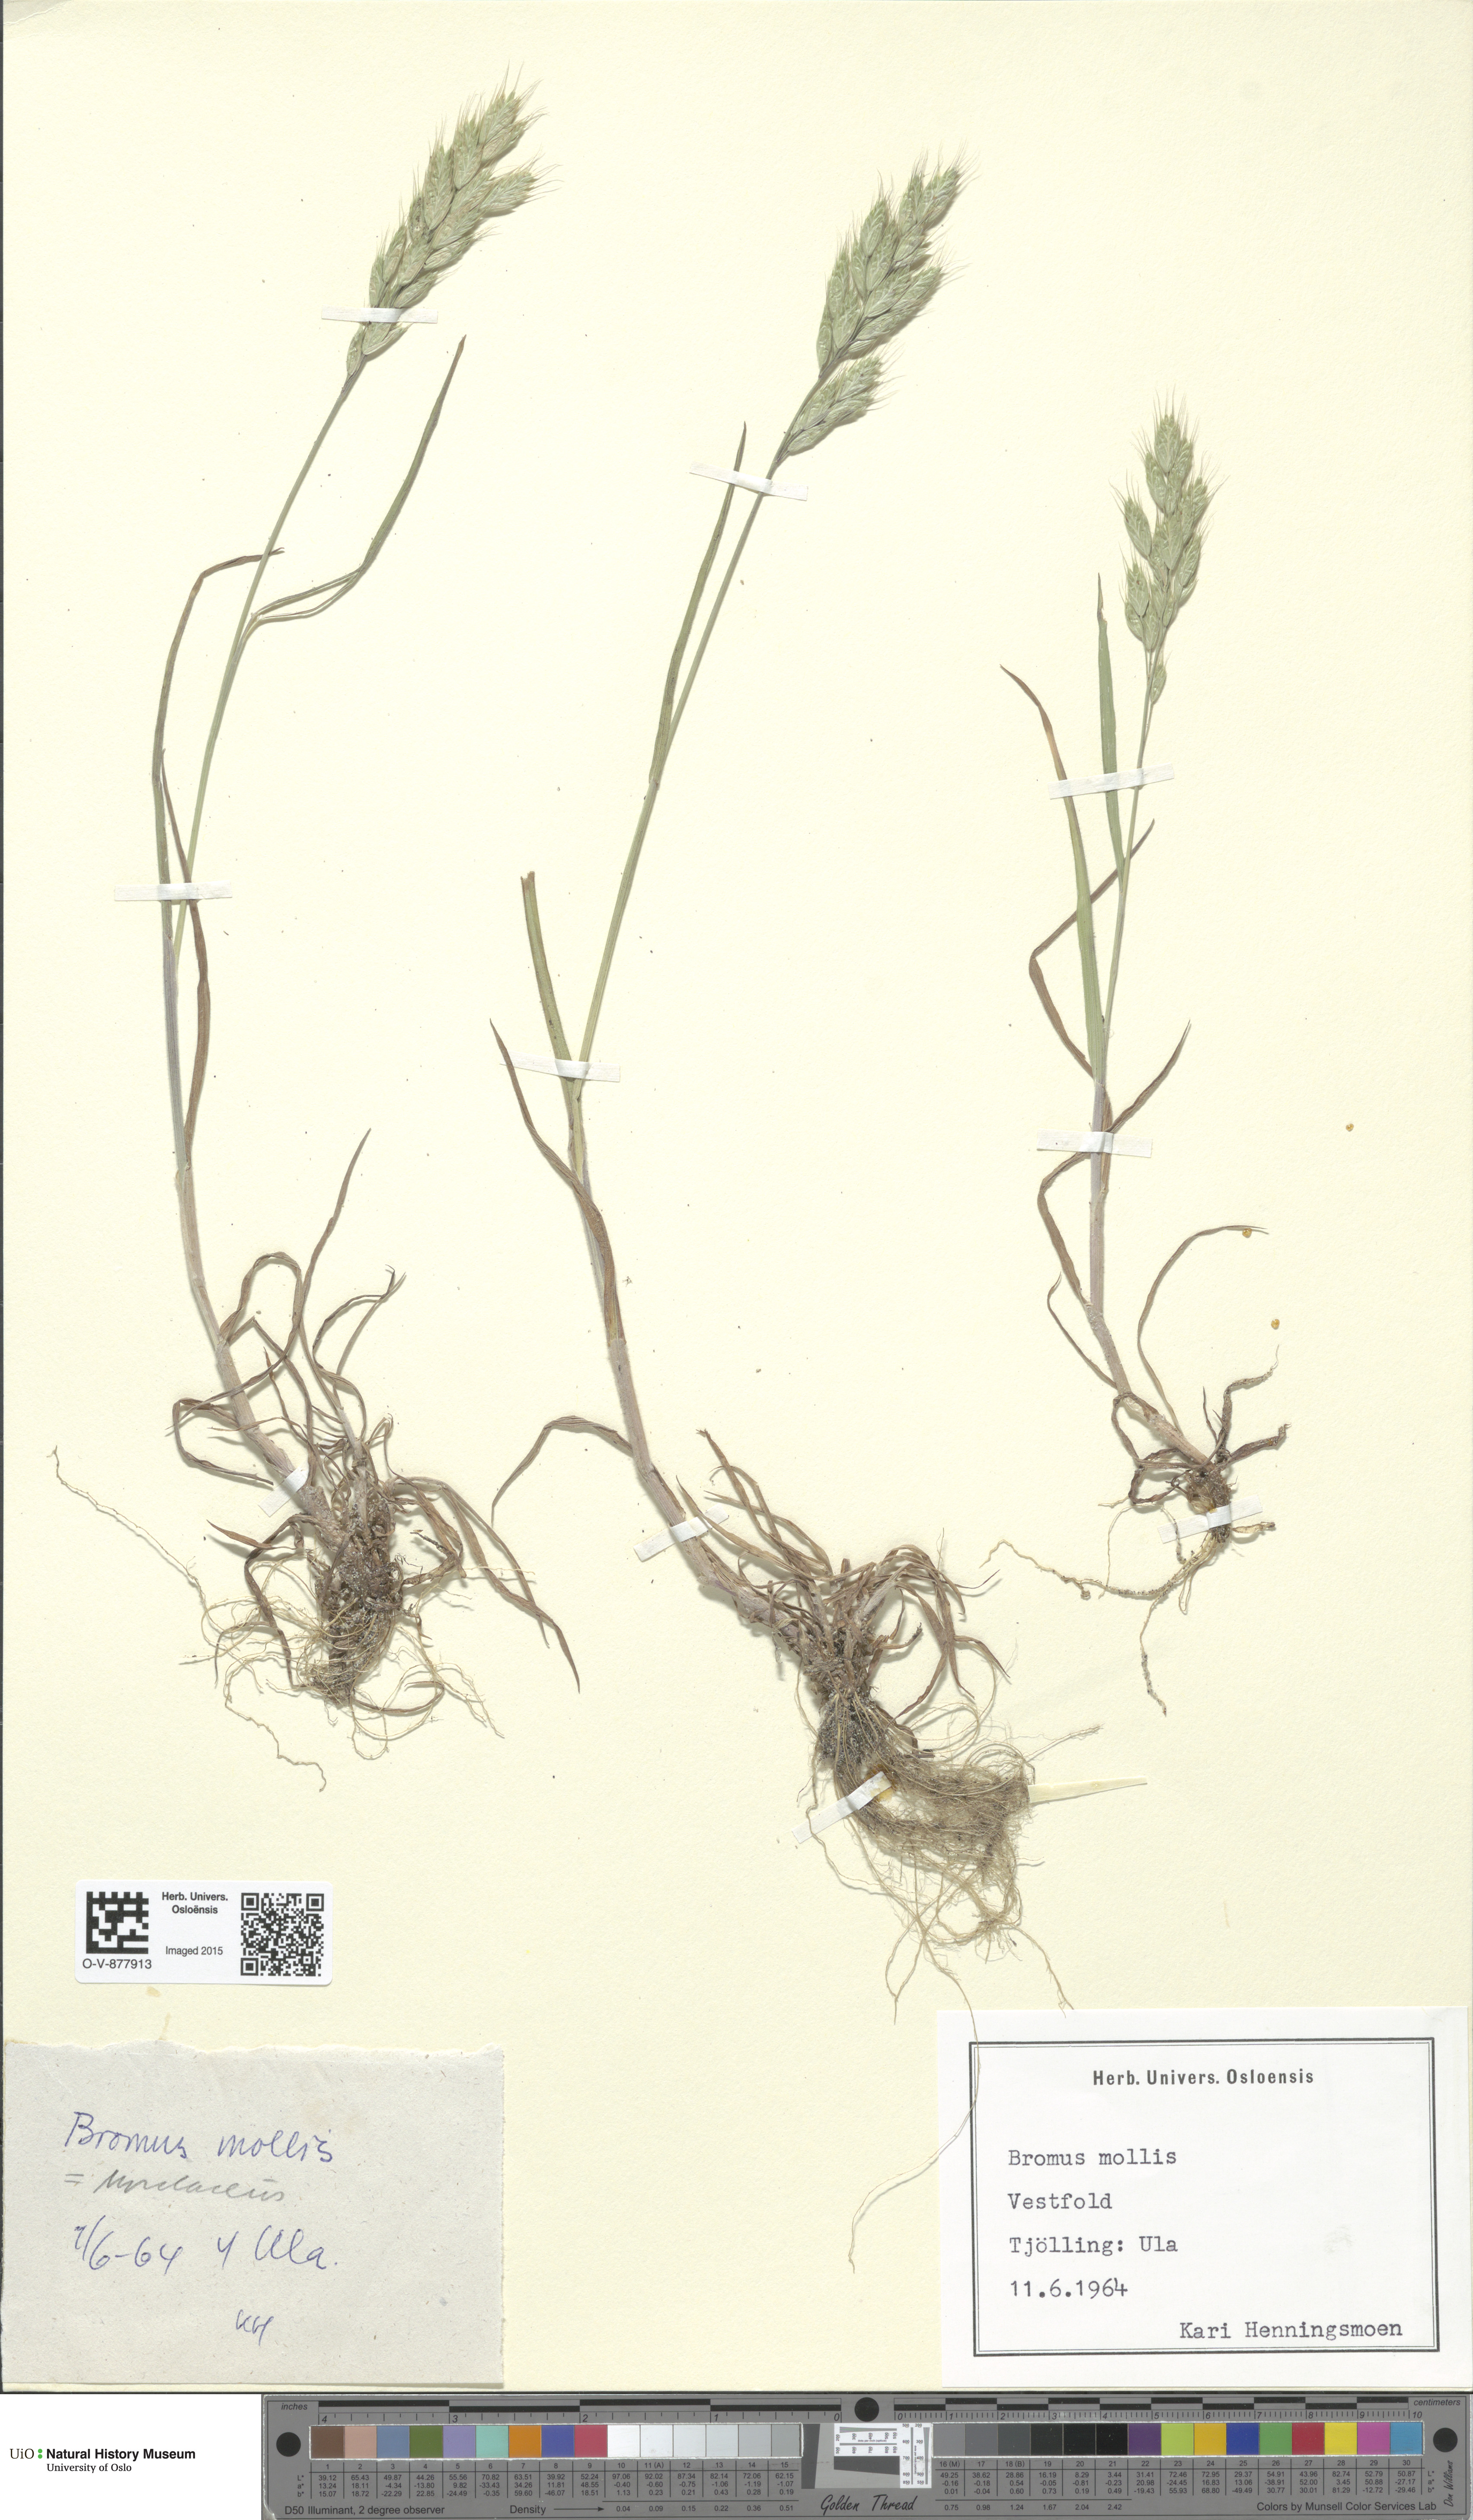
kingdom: Plantae
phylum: Tracheophyta
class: Liliopsida
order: Poales
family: Poaceae
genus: Bromus
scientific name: Bromus hordeaceus
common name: Soft brome
